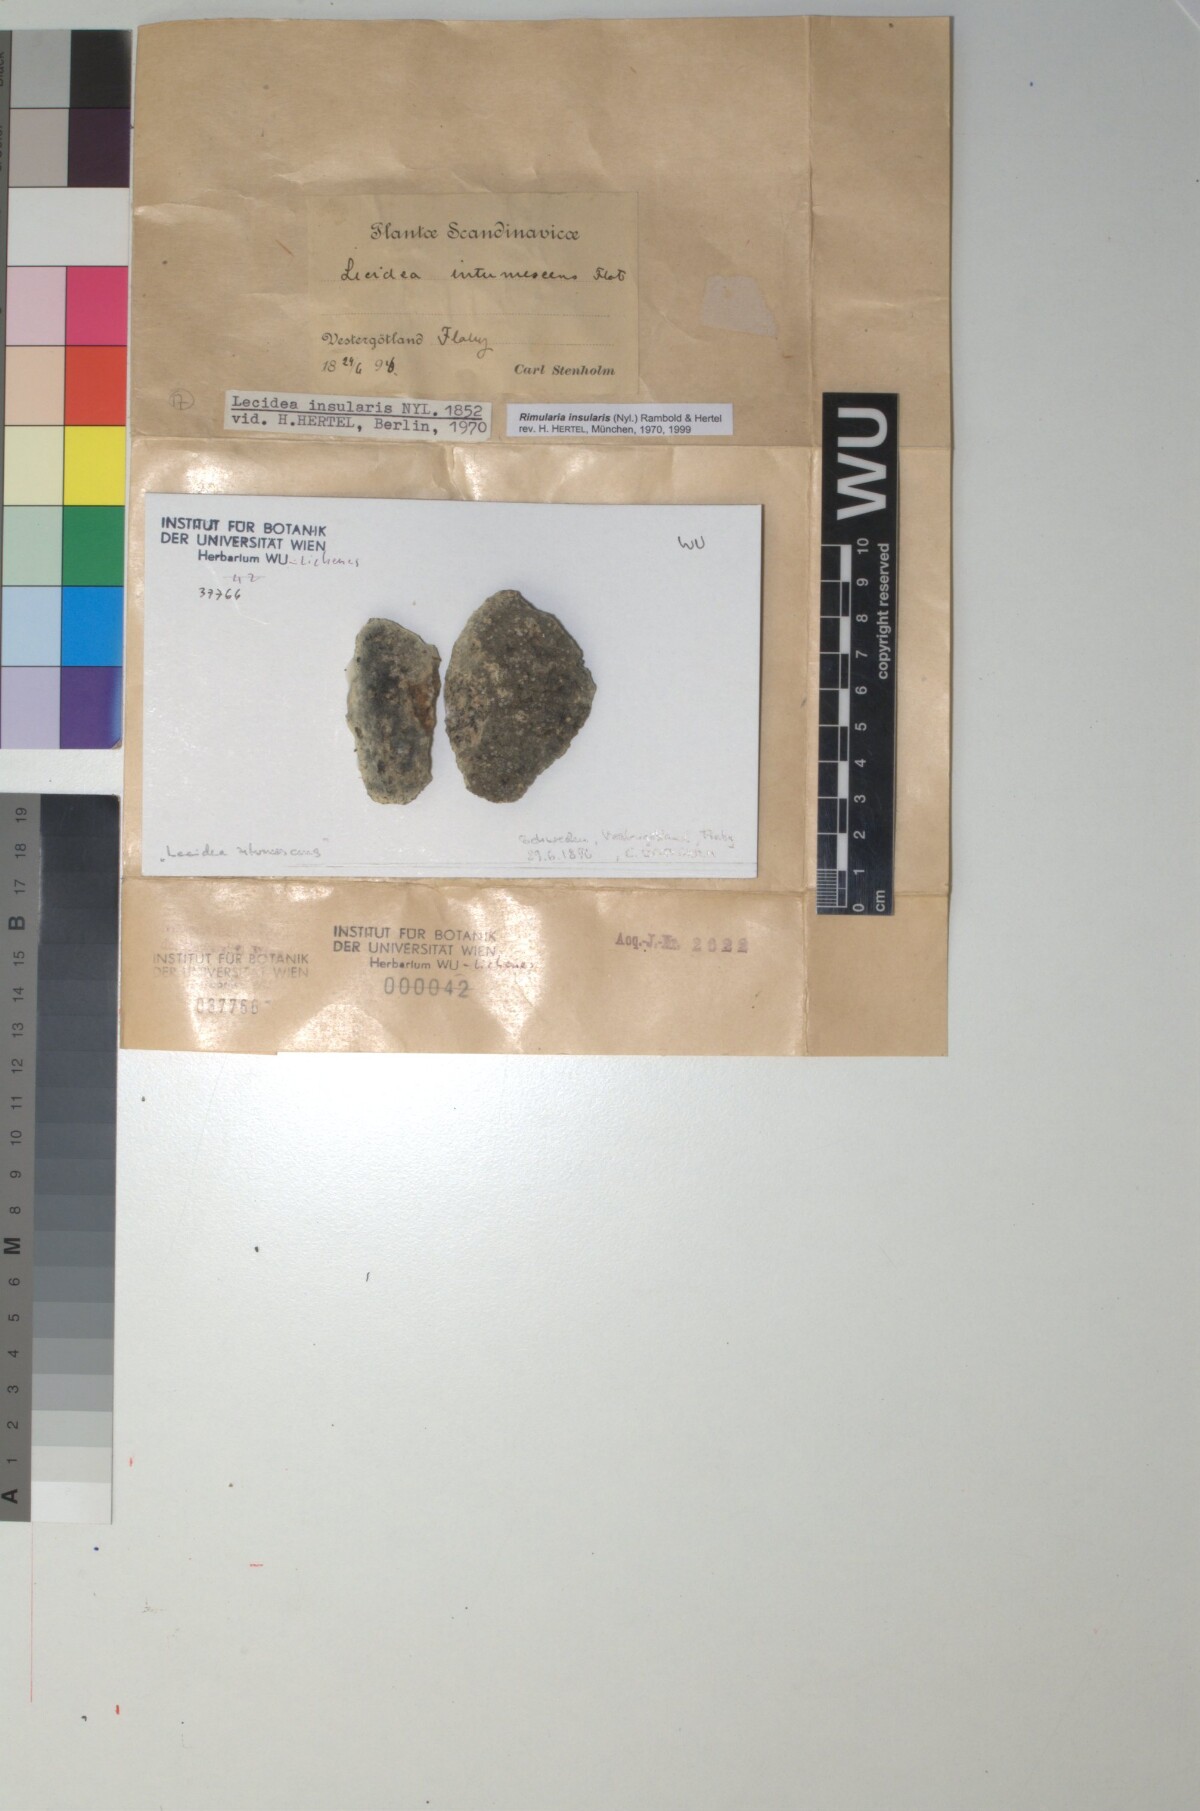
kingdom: Fungi
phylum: Ascomycota
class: Lecanoromycetes
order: Baeomycetales
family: Trapeliaceae
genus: Lambiella
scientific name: Lambiella insularis
